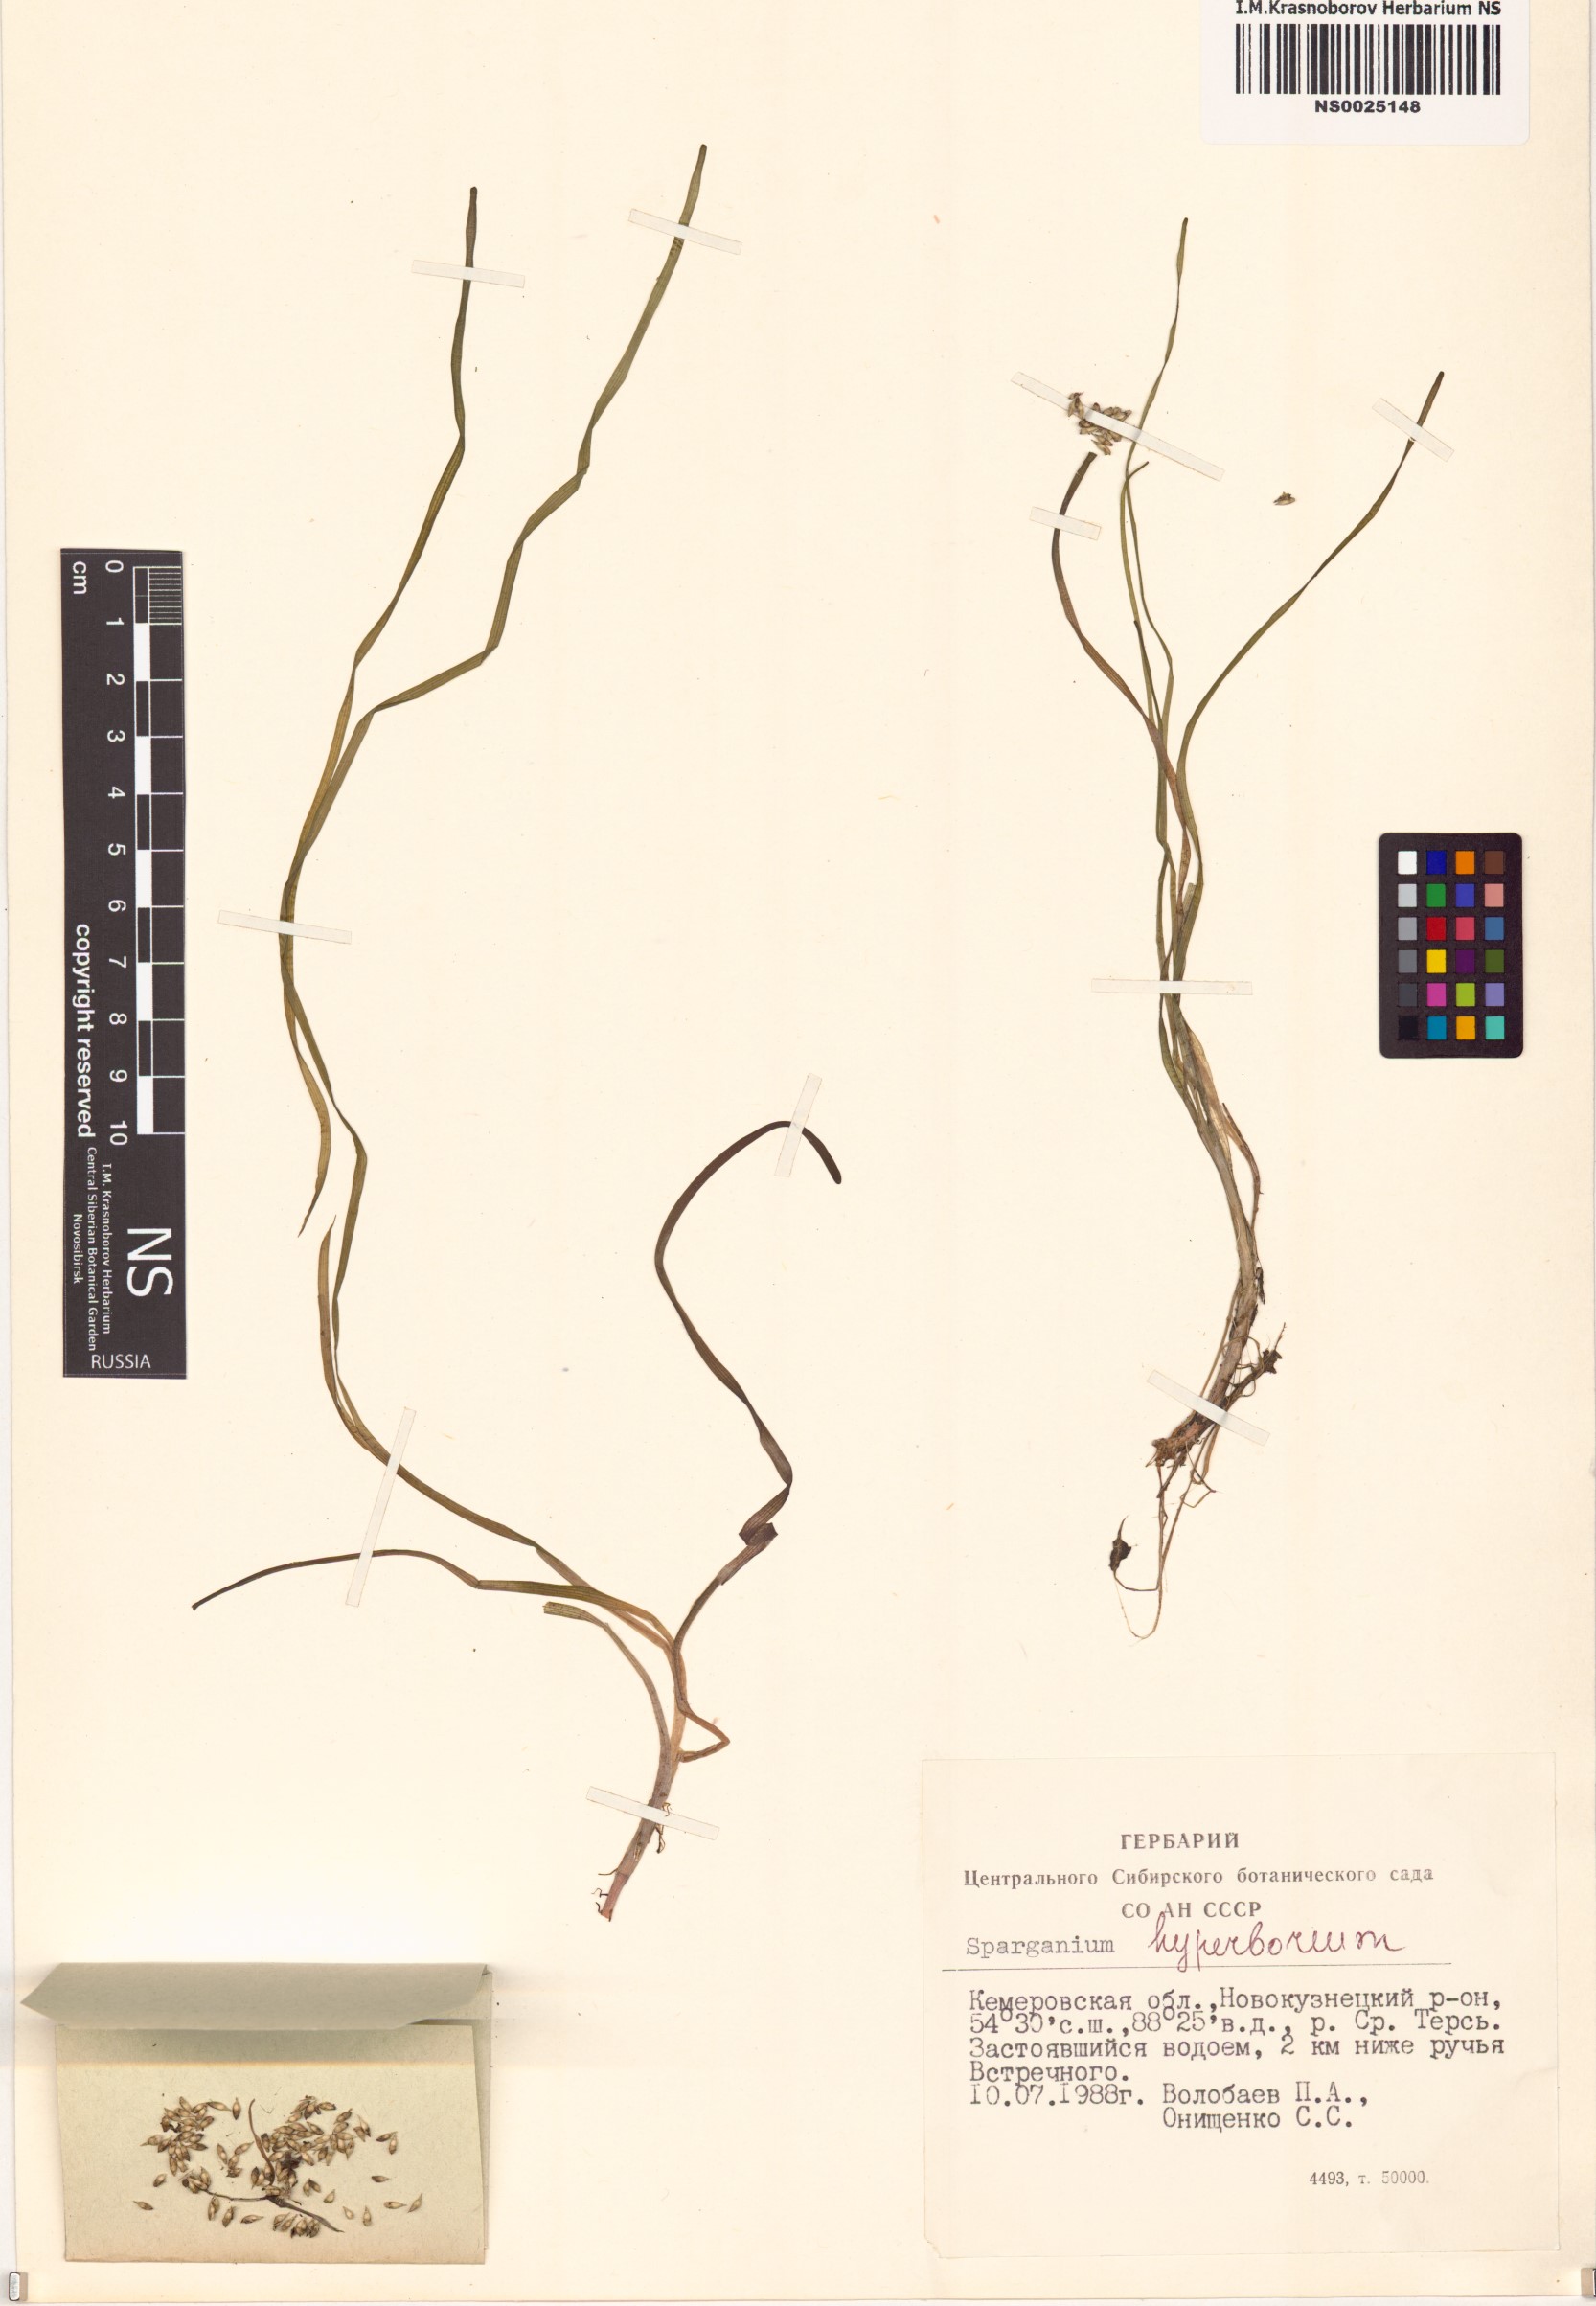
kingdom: Plantae
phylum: Tracheophyta
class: Liliopsida
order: Poales
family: Typhaceae
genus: Sparganium
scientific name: Sparganium hyperboreum
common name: Arctic burreed
